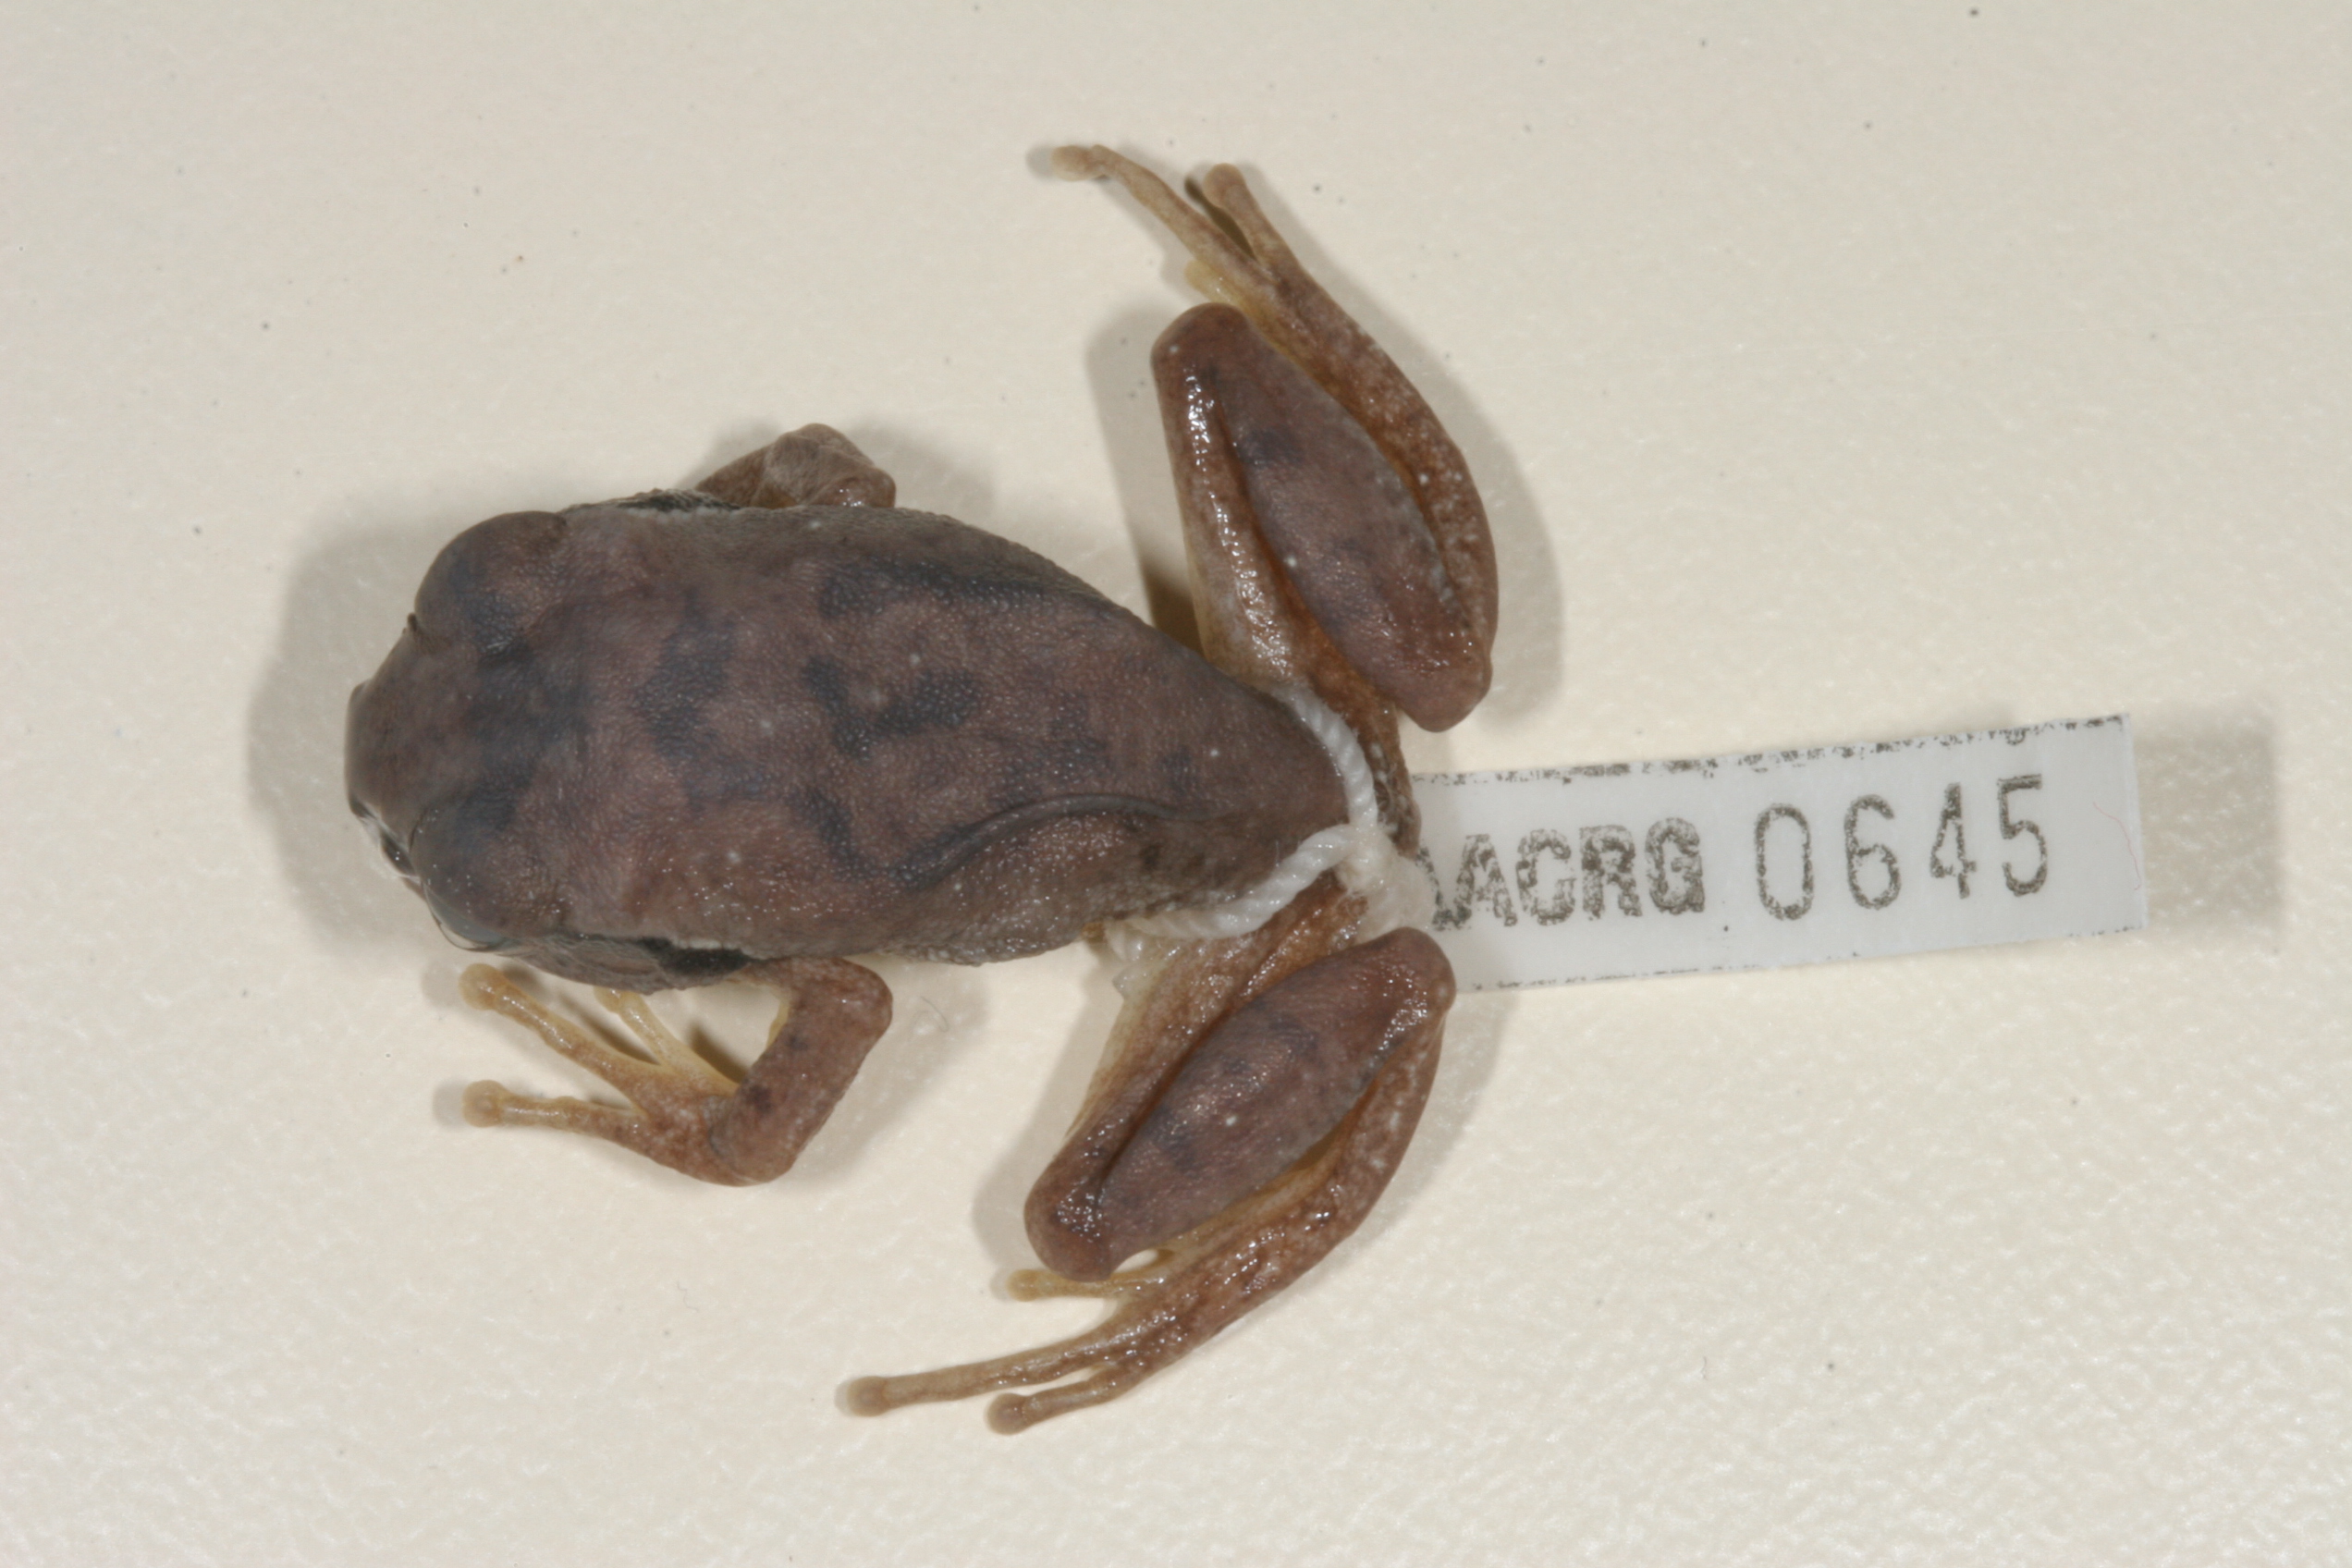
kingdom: Animalia
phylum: Chordata
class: Amphibia
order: Anura
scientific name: Anura
